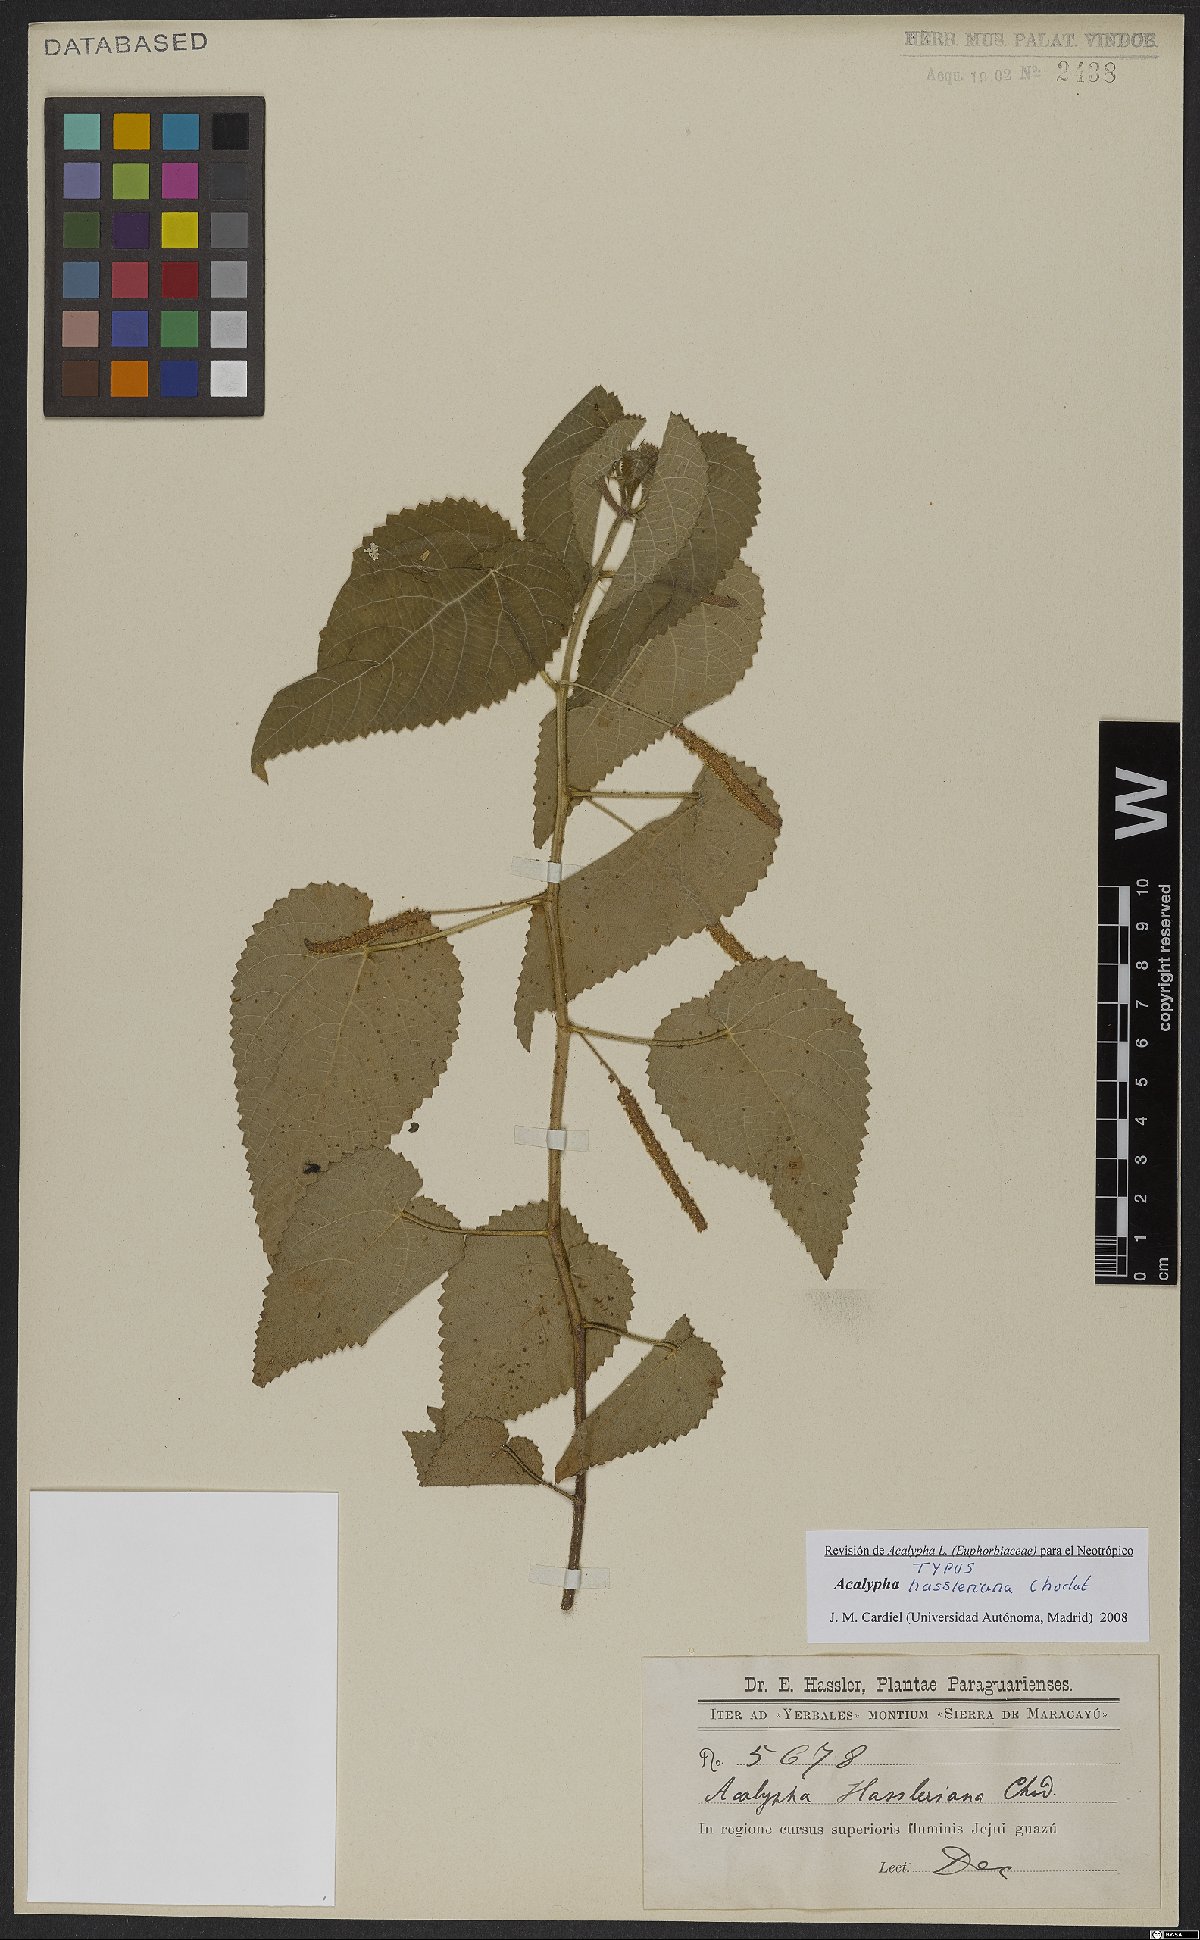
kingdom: Plantae
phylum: Tracheophyta
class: Magnoliopsida
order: Malpighiales
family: Euphorbiaceae
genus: Acalypha
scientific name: Acalypha hassleriana
